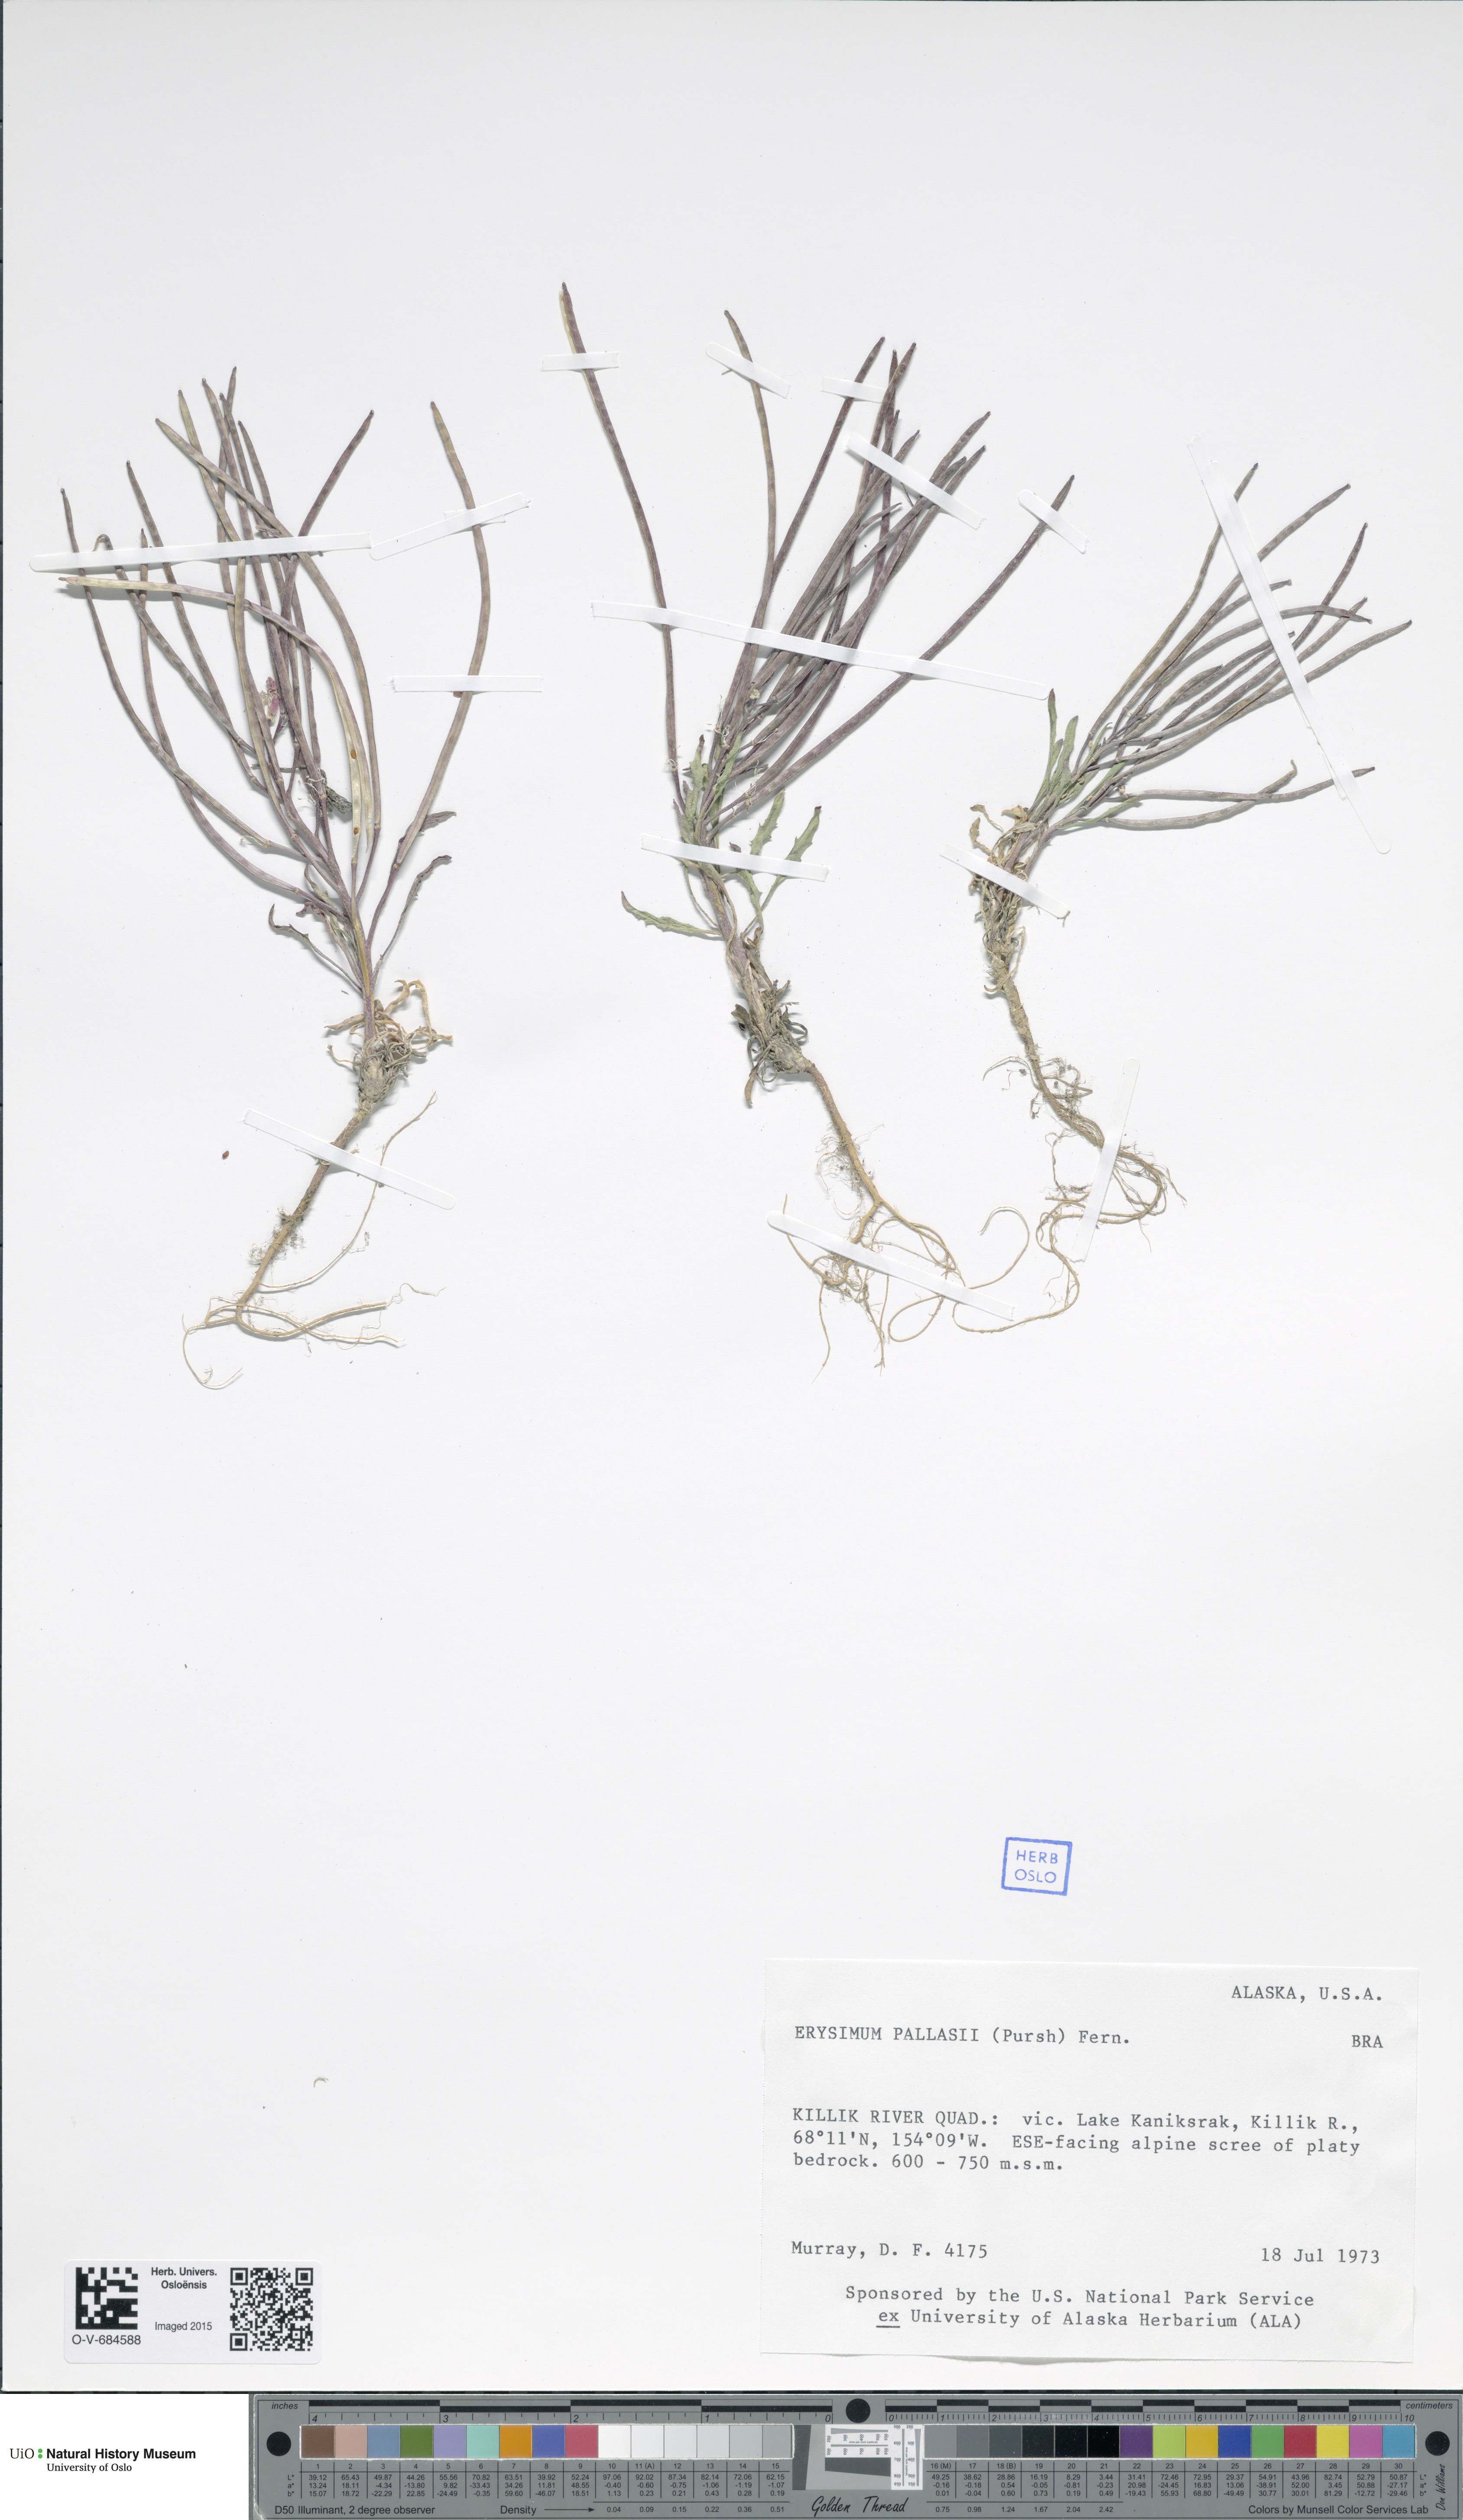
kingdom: Plantae
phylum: Tracheophyta
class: Magnoliopsida
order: Brassicales
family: Brassicaceae
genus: Erysimum
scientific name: Erysimum pallasii
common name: Pallas' wallflower
